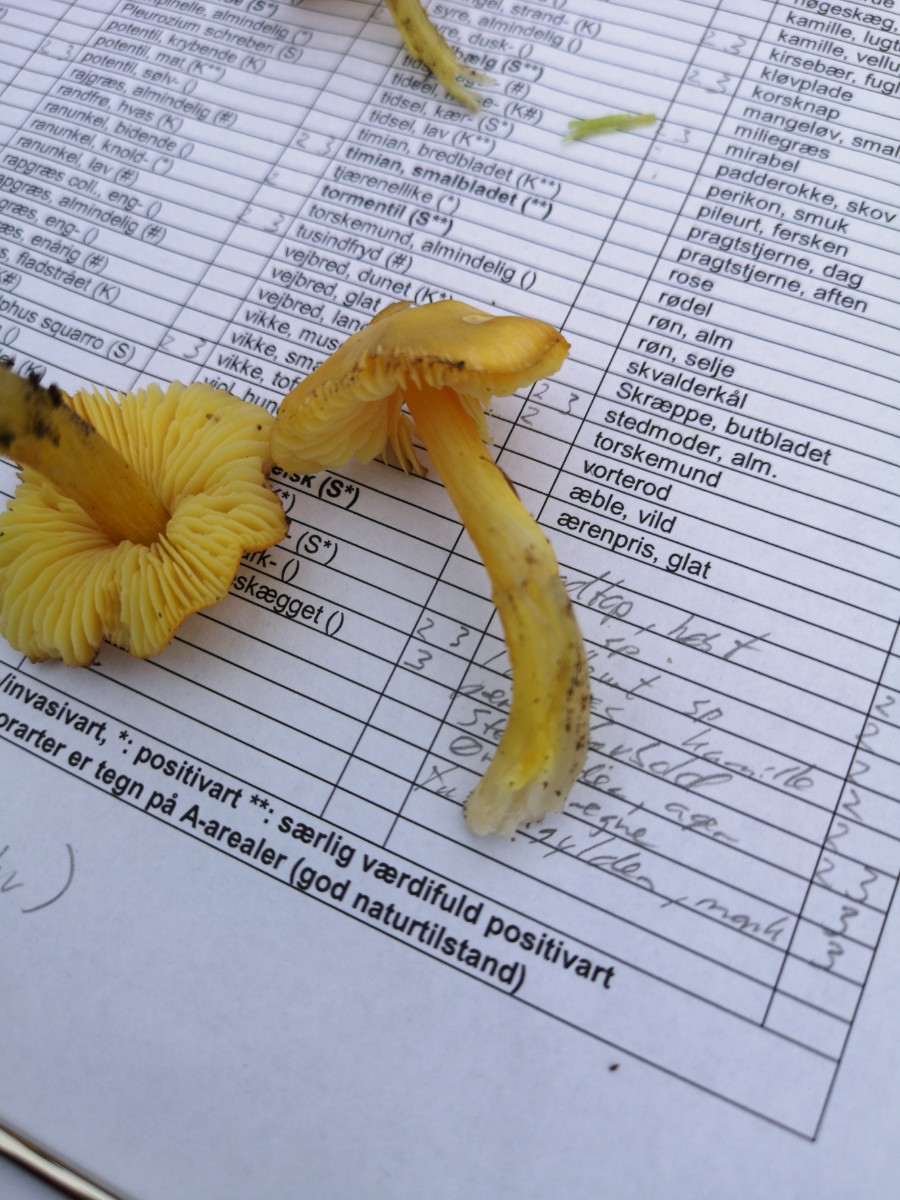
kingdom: Fungi
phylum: Basidiomycota
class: Agaricomycetes
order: Agaricales
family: Hygrophoraceae
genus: Hygrocybe
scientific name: Hygrocybe acutoconica
